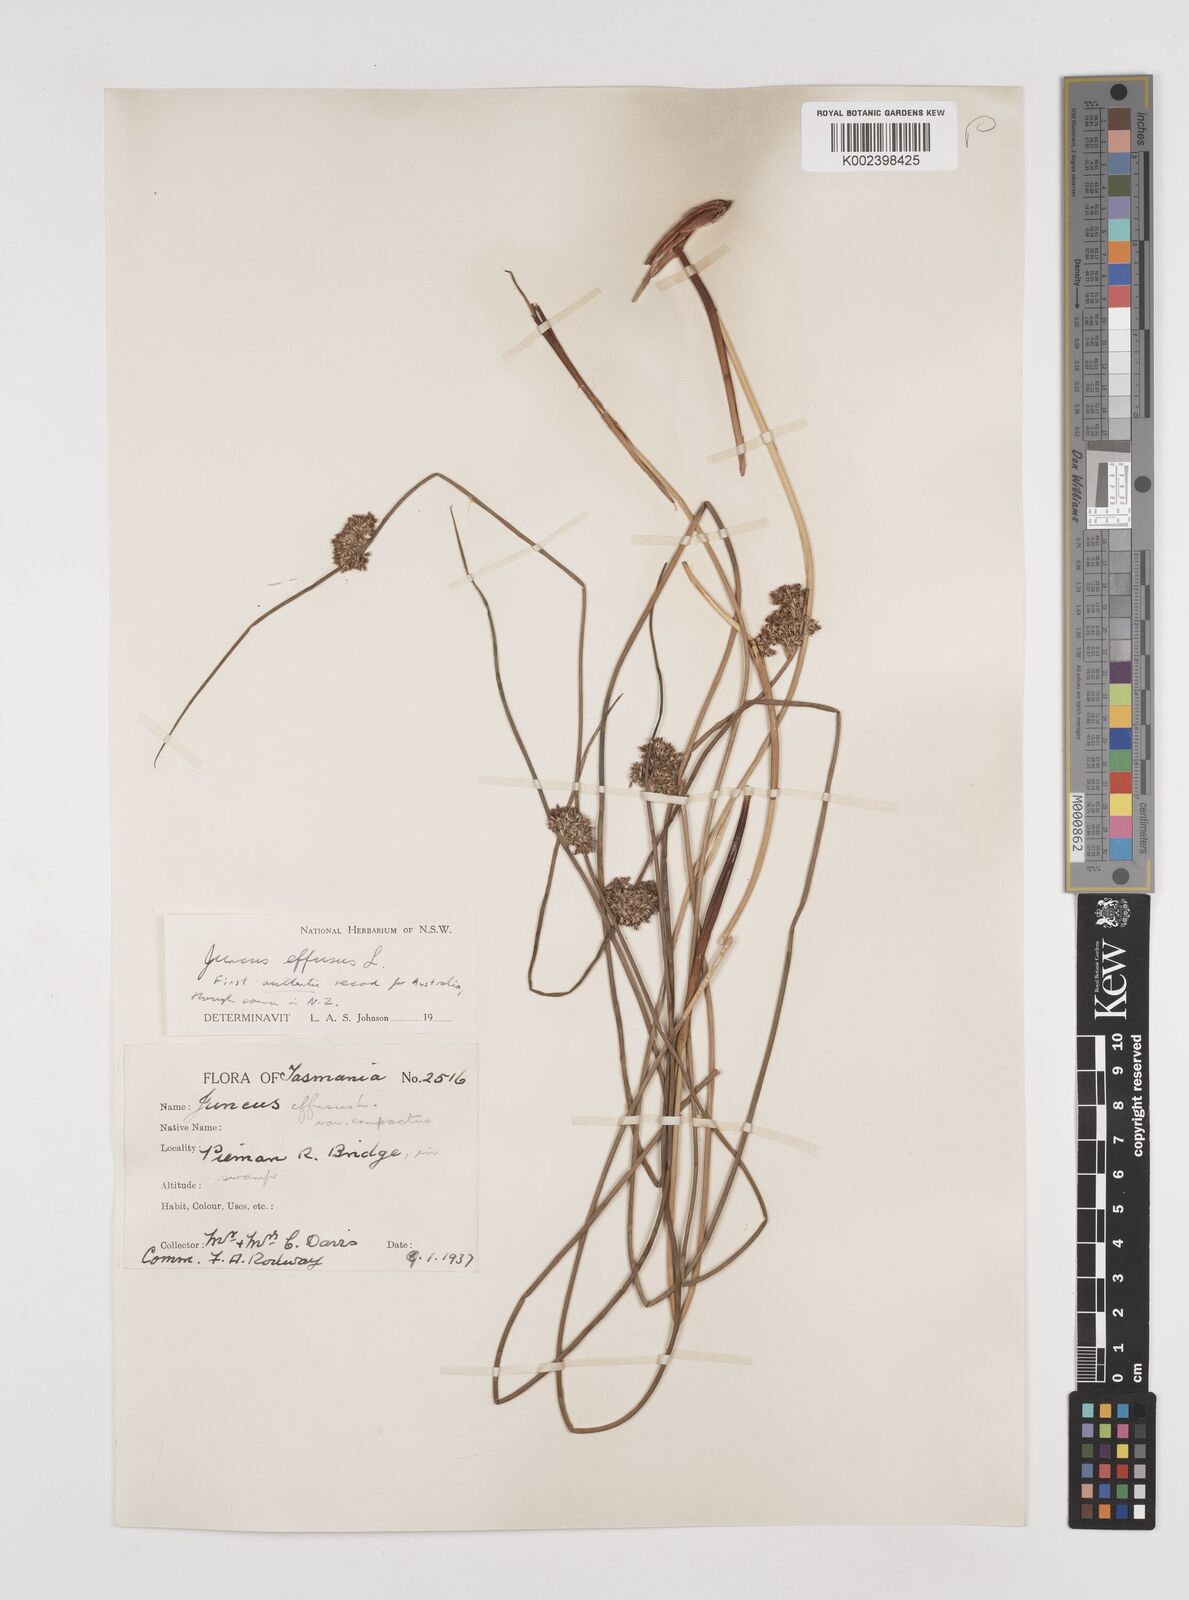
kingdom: Plantae
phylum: Tracheophyta
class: Liliopsida
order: Poales
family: Juncaceae
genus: Juncus
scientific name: Juncus effusus
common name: Soft rush
